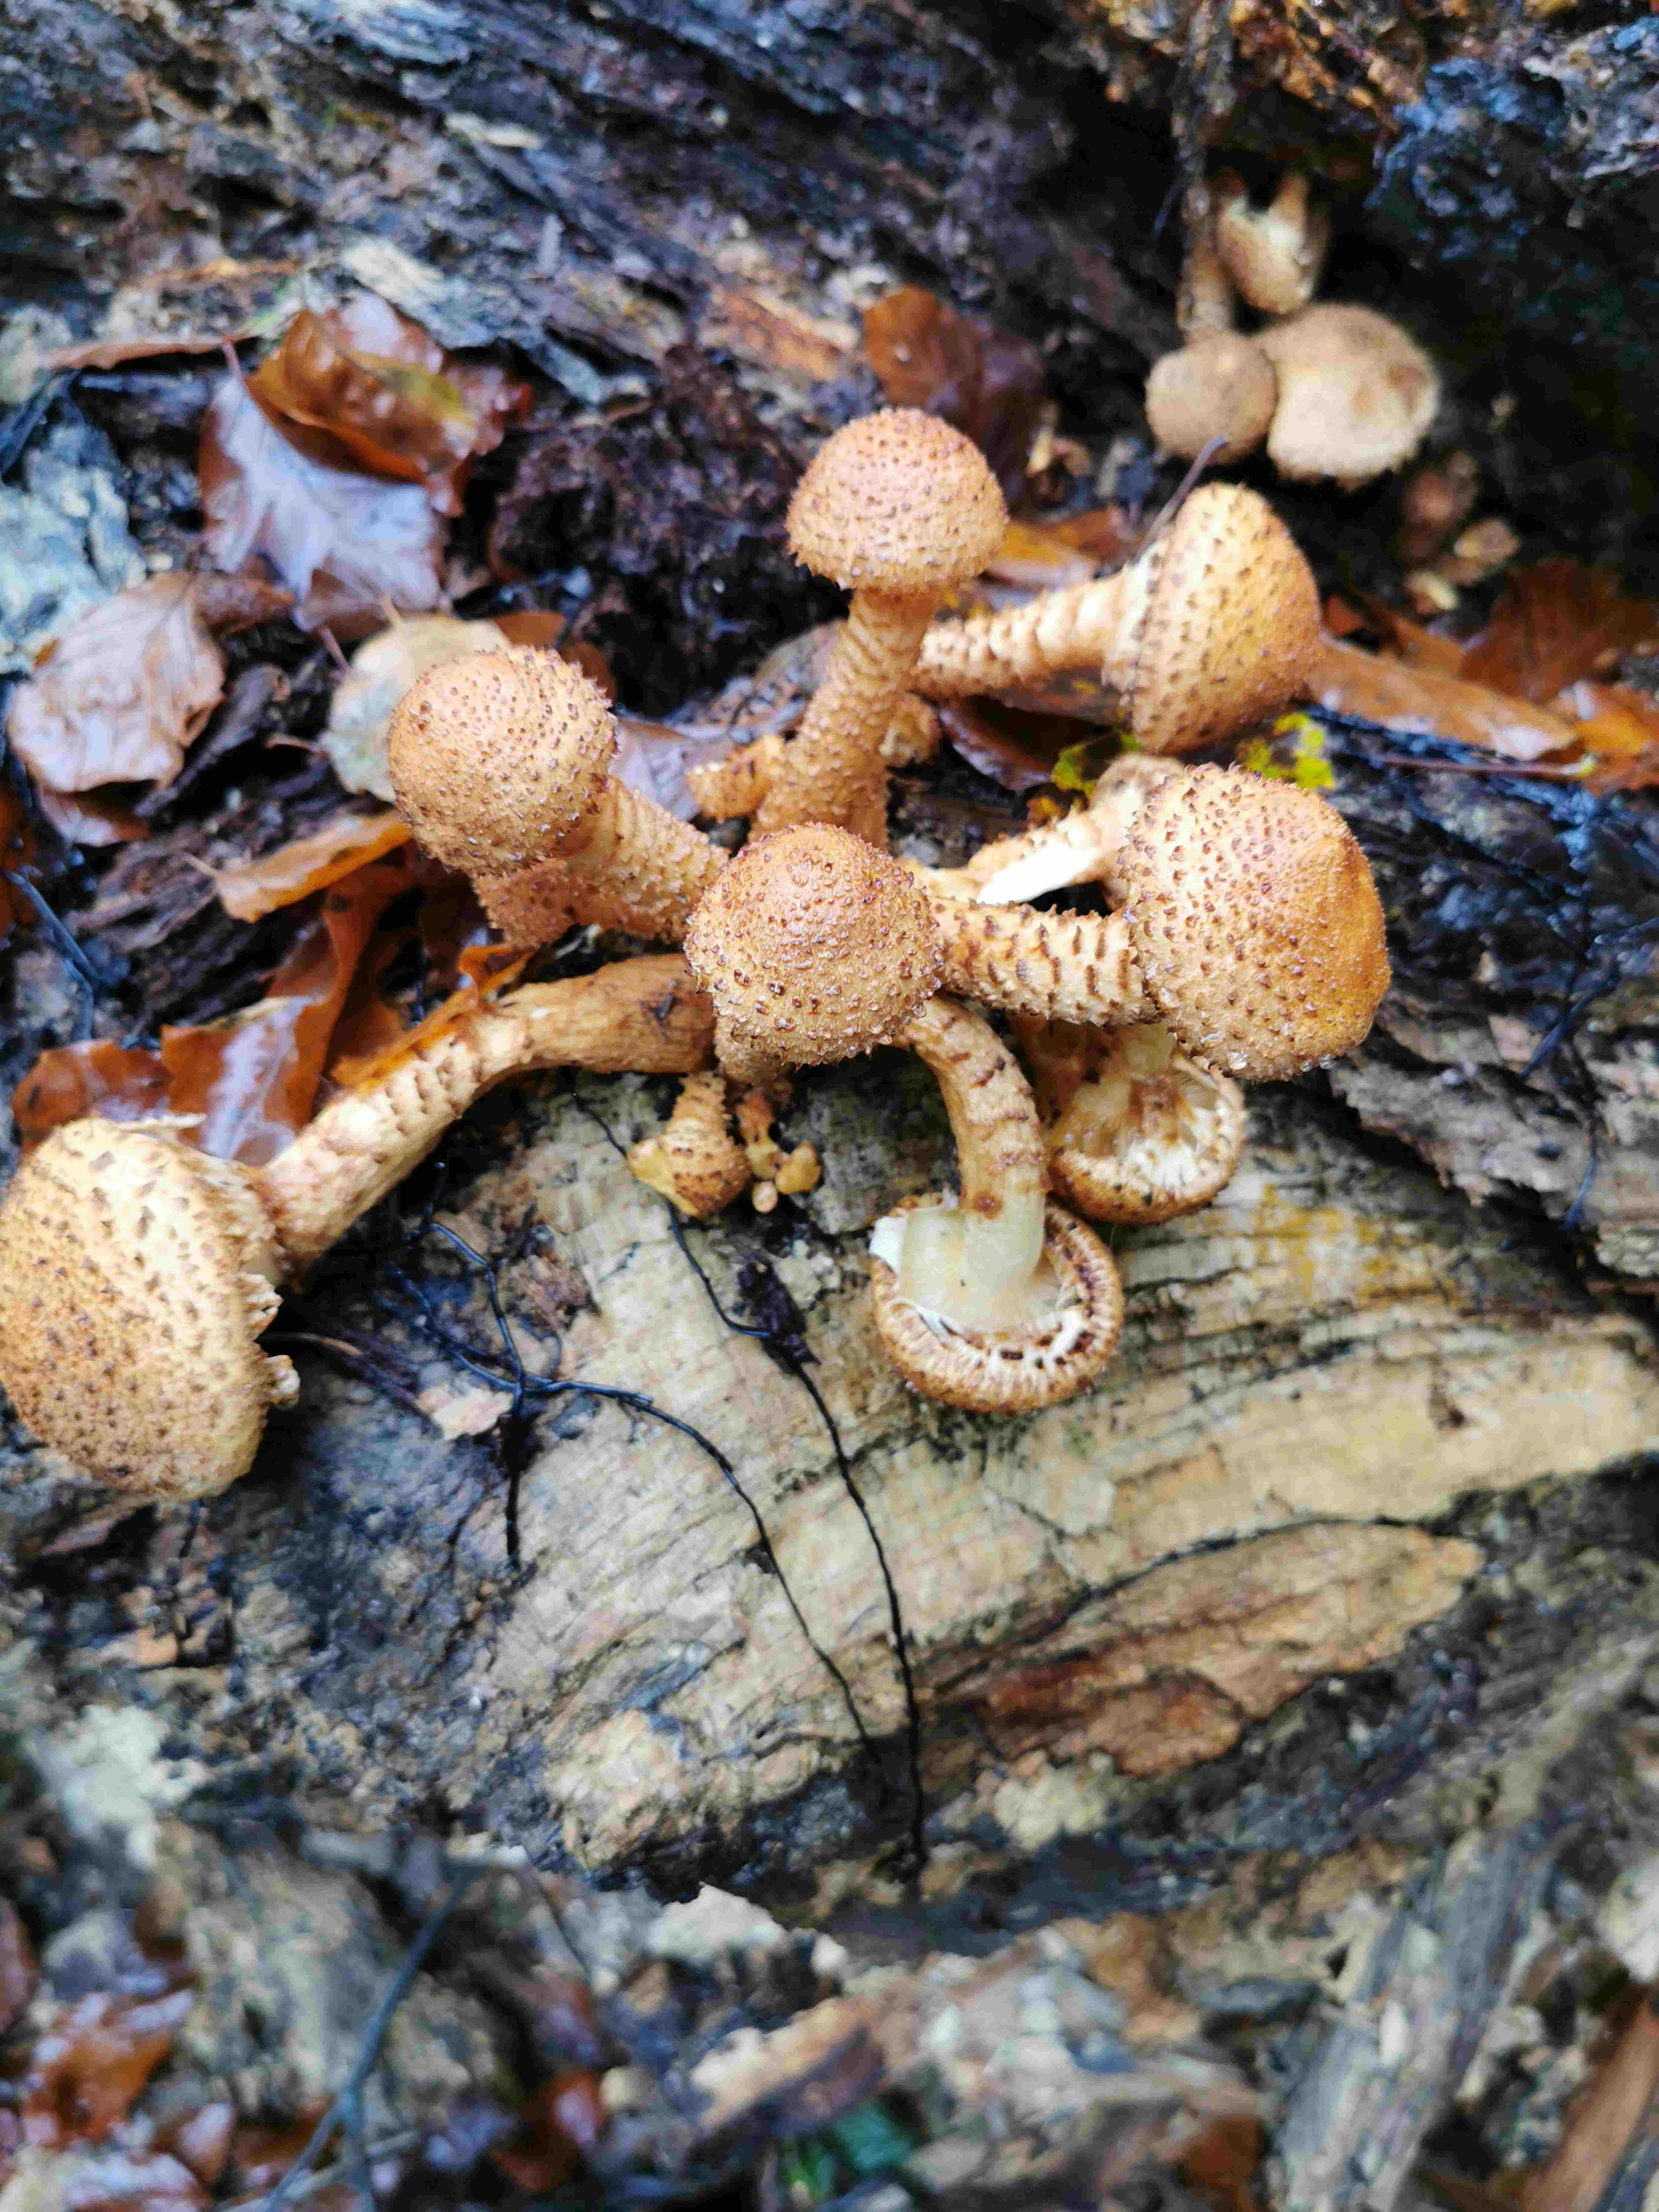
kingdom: Fungi
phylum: Basidiomycota
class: Agaricomycetes
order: Agaricales
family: Strophariaceae
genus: Pholiota
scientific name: Pholiota squarrosa
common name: krumskællet skælhat
